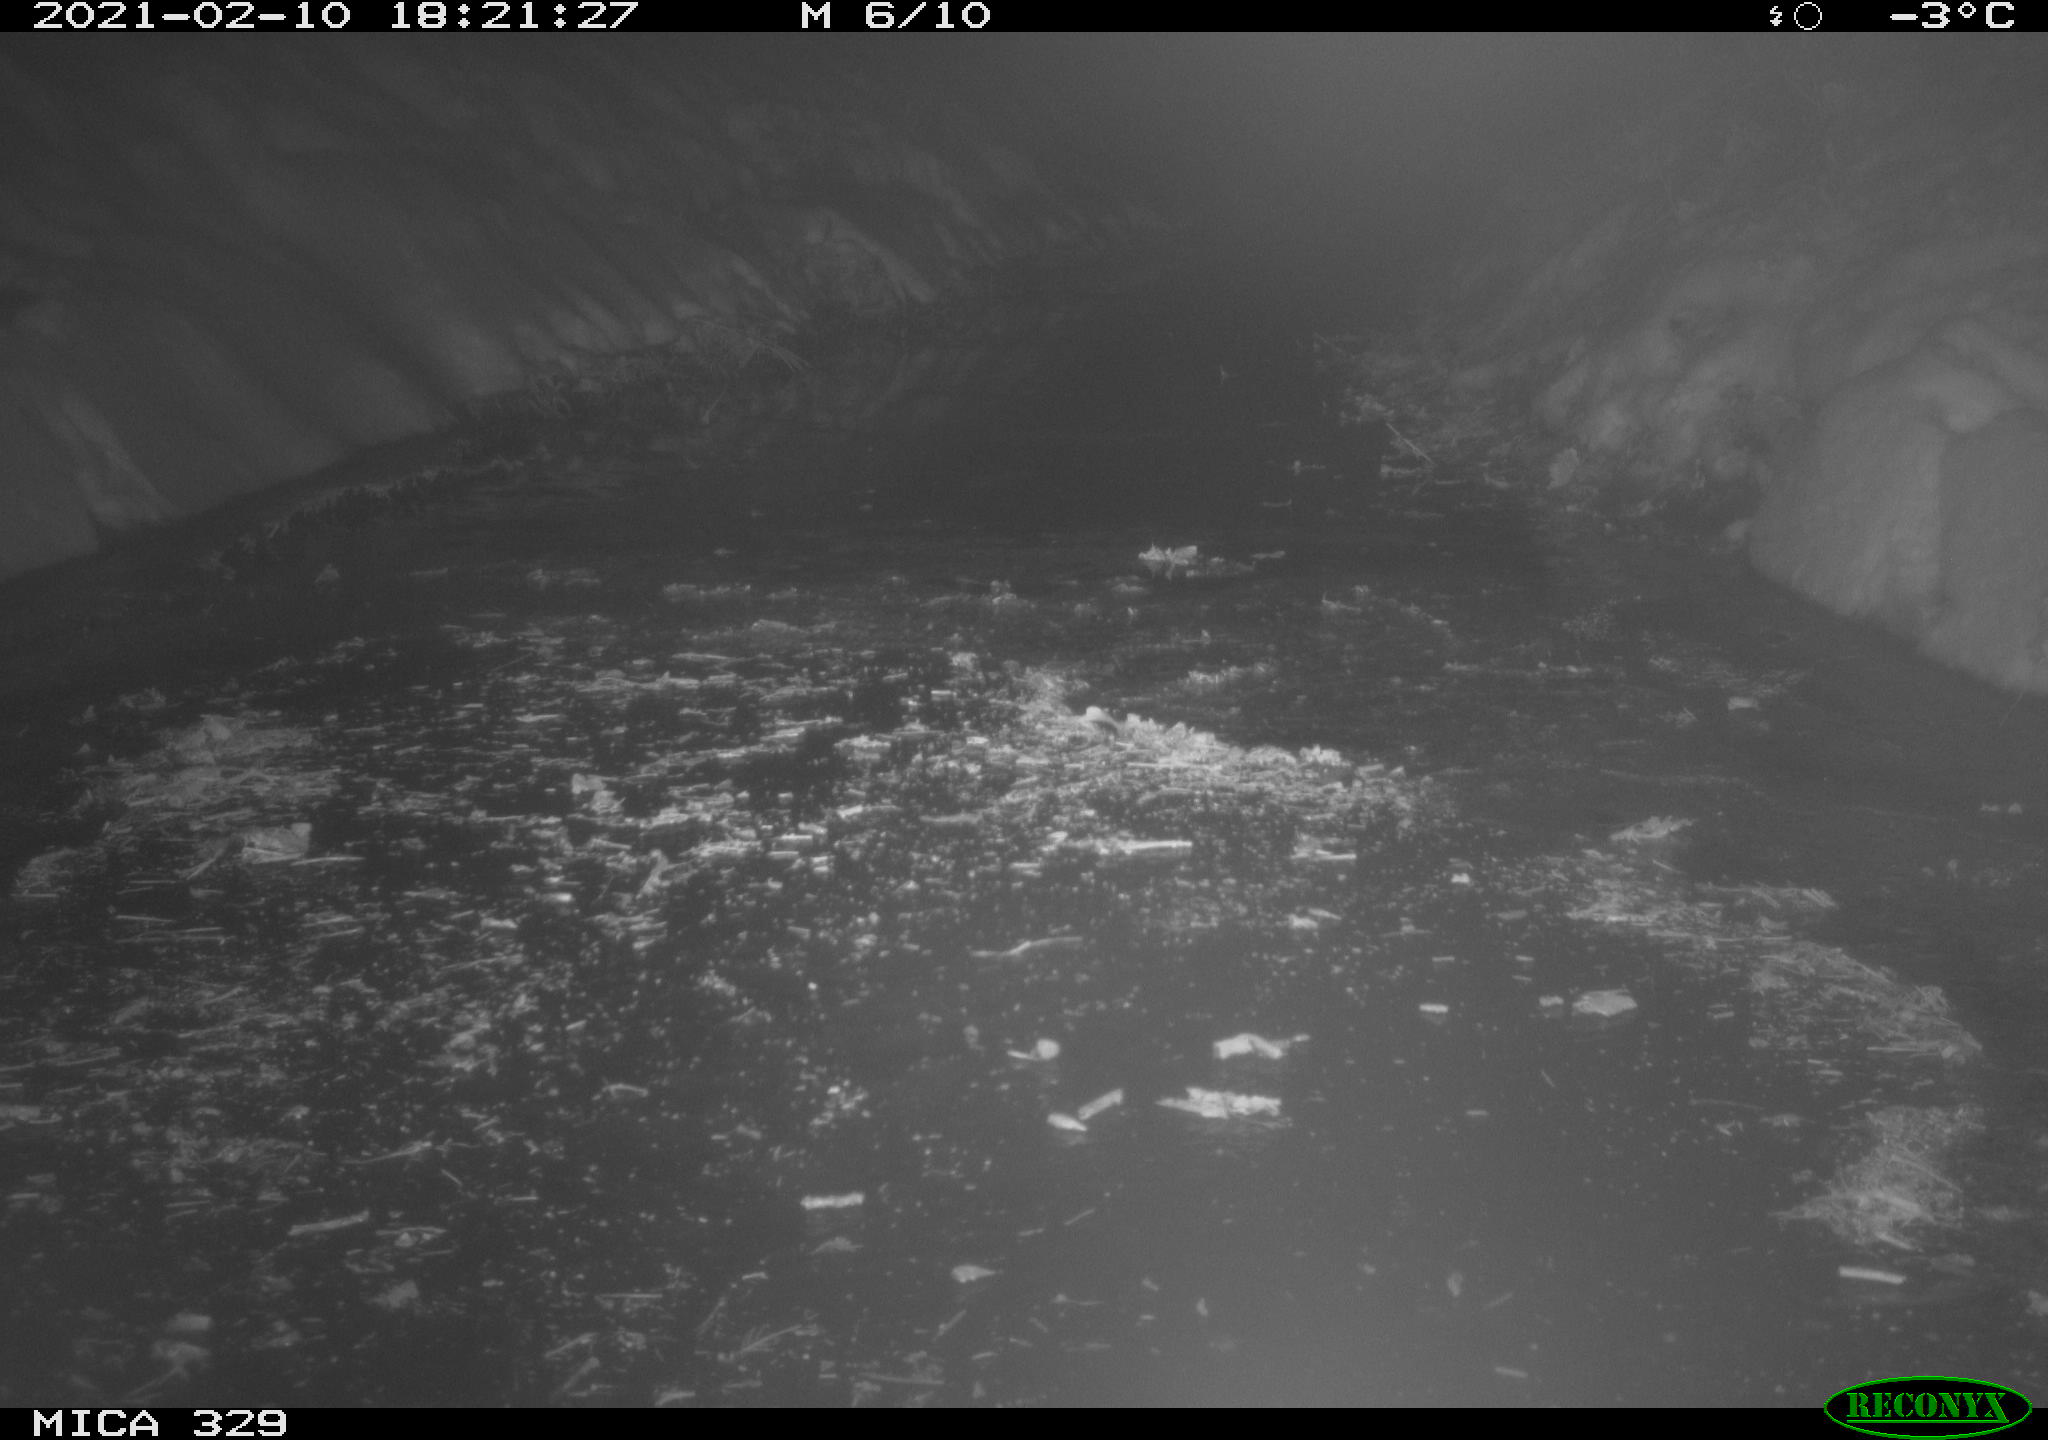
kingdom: Animalia
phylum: Chordata
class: Aves
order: Charadriiformes
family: Scolopacidae
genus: Scolopax
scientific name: Scolopax rusticola
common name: Eurasian woodcock
